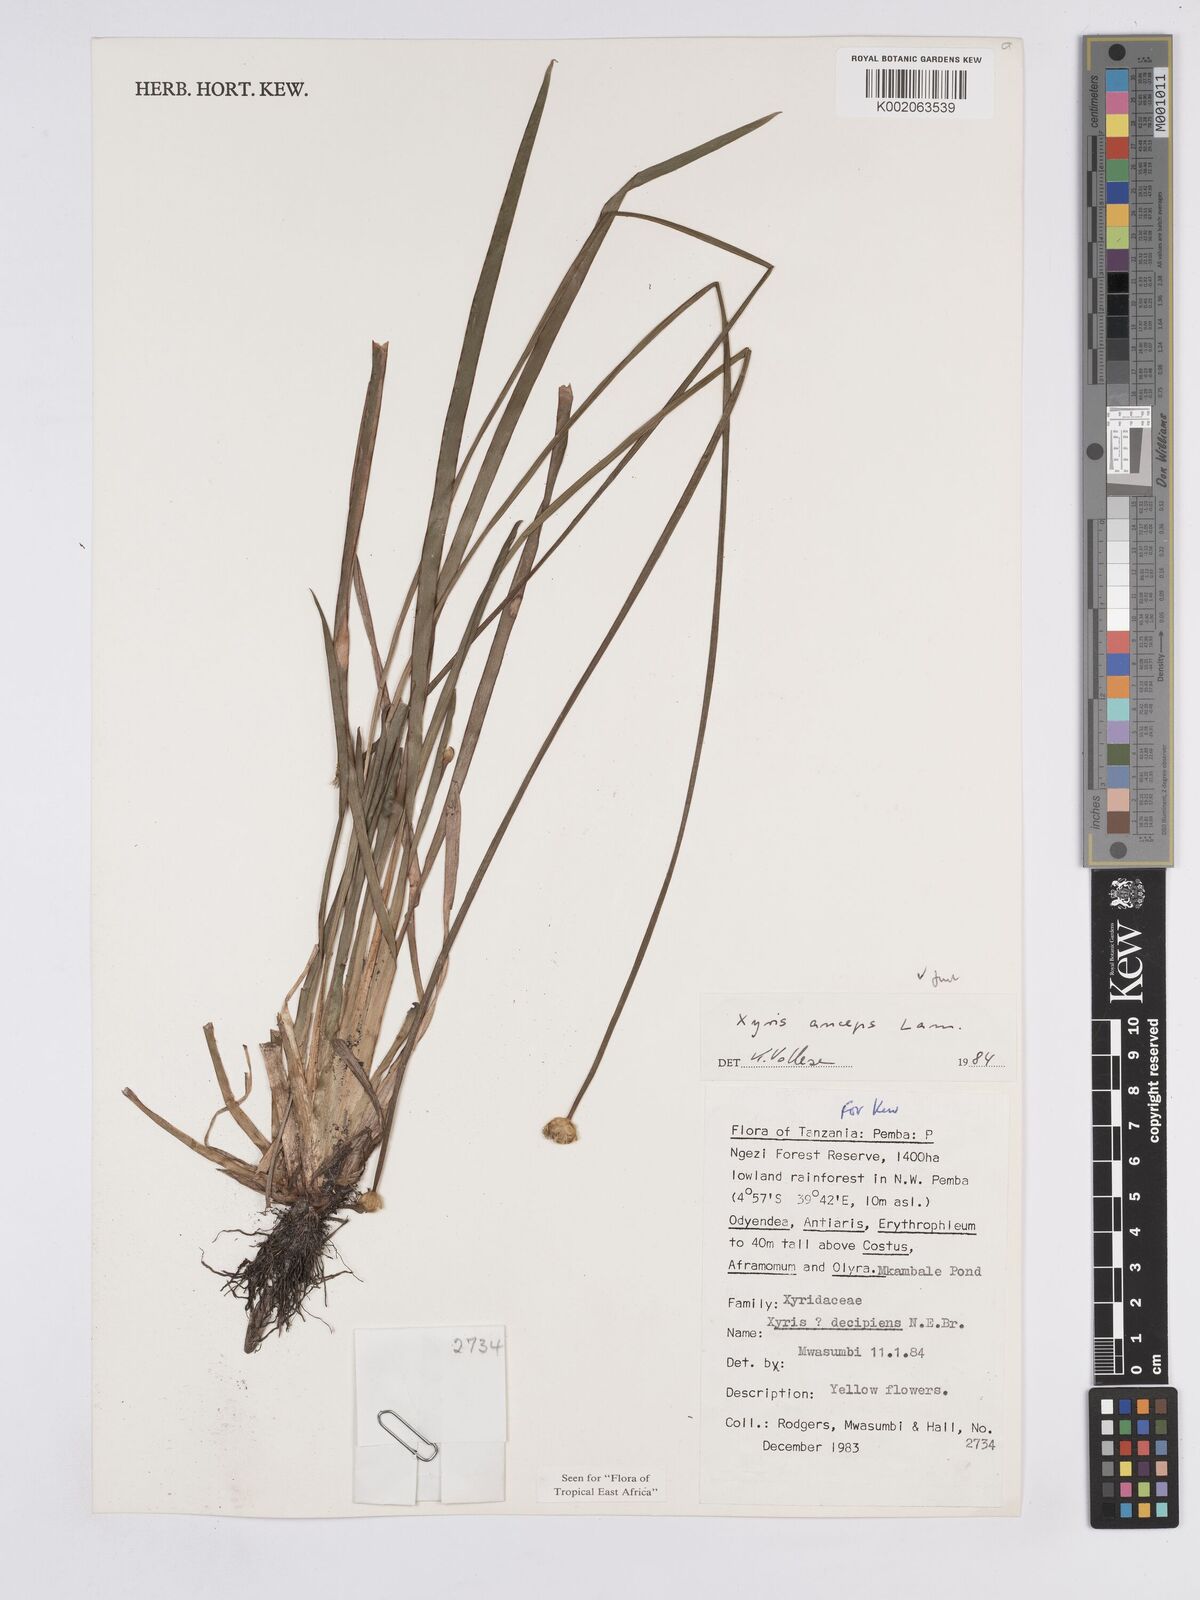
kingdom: Plantae
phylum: Tracheophyta
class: Liliopsida
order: Poales
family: Xyridaceae
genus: Xyris
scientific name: Xyris anceps
